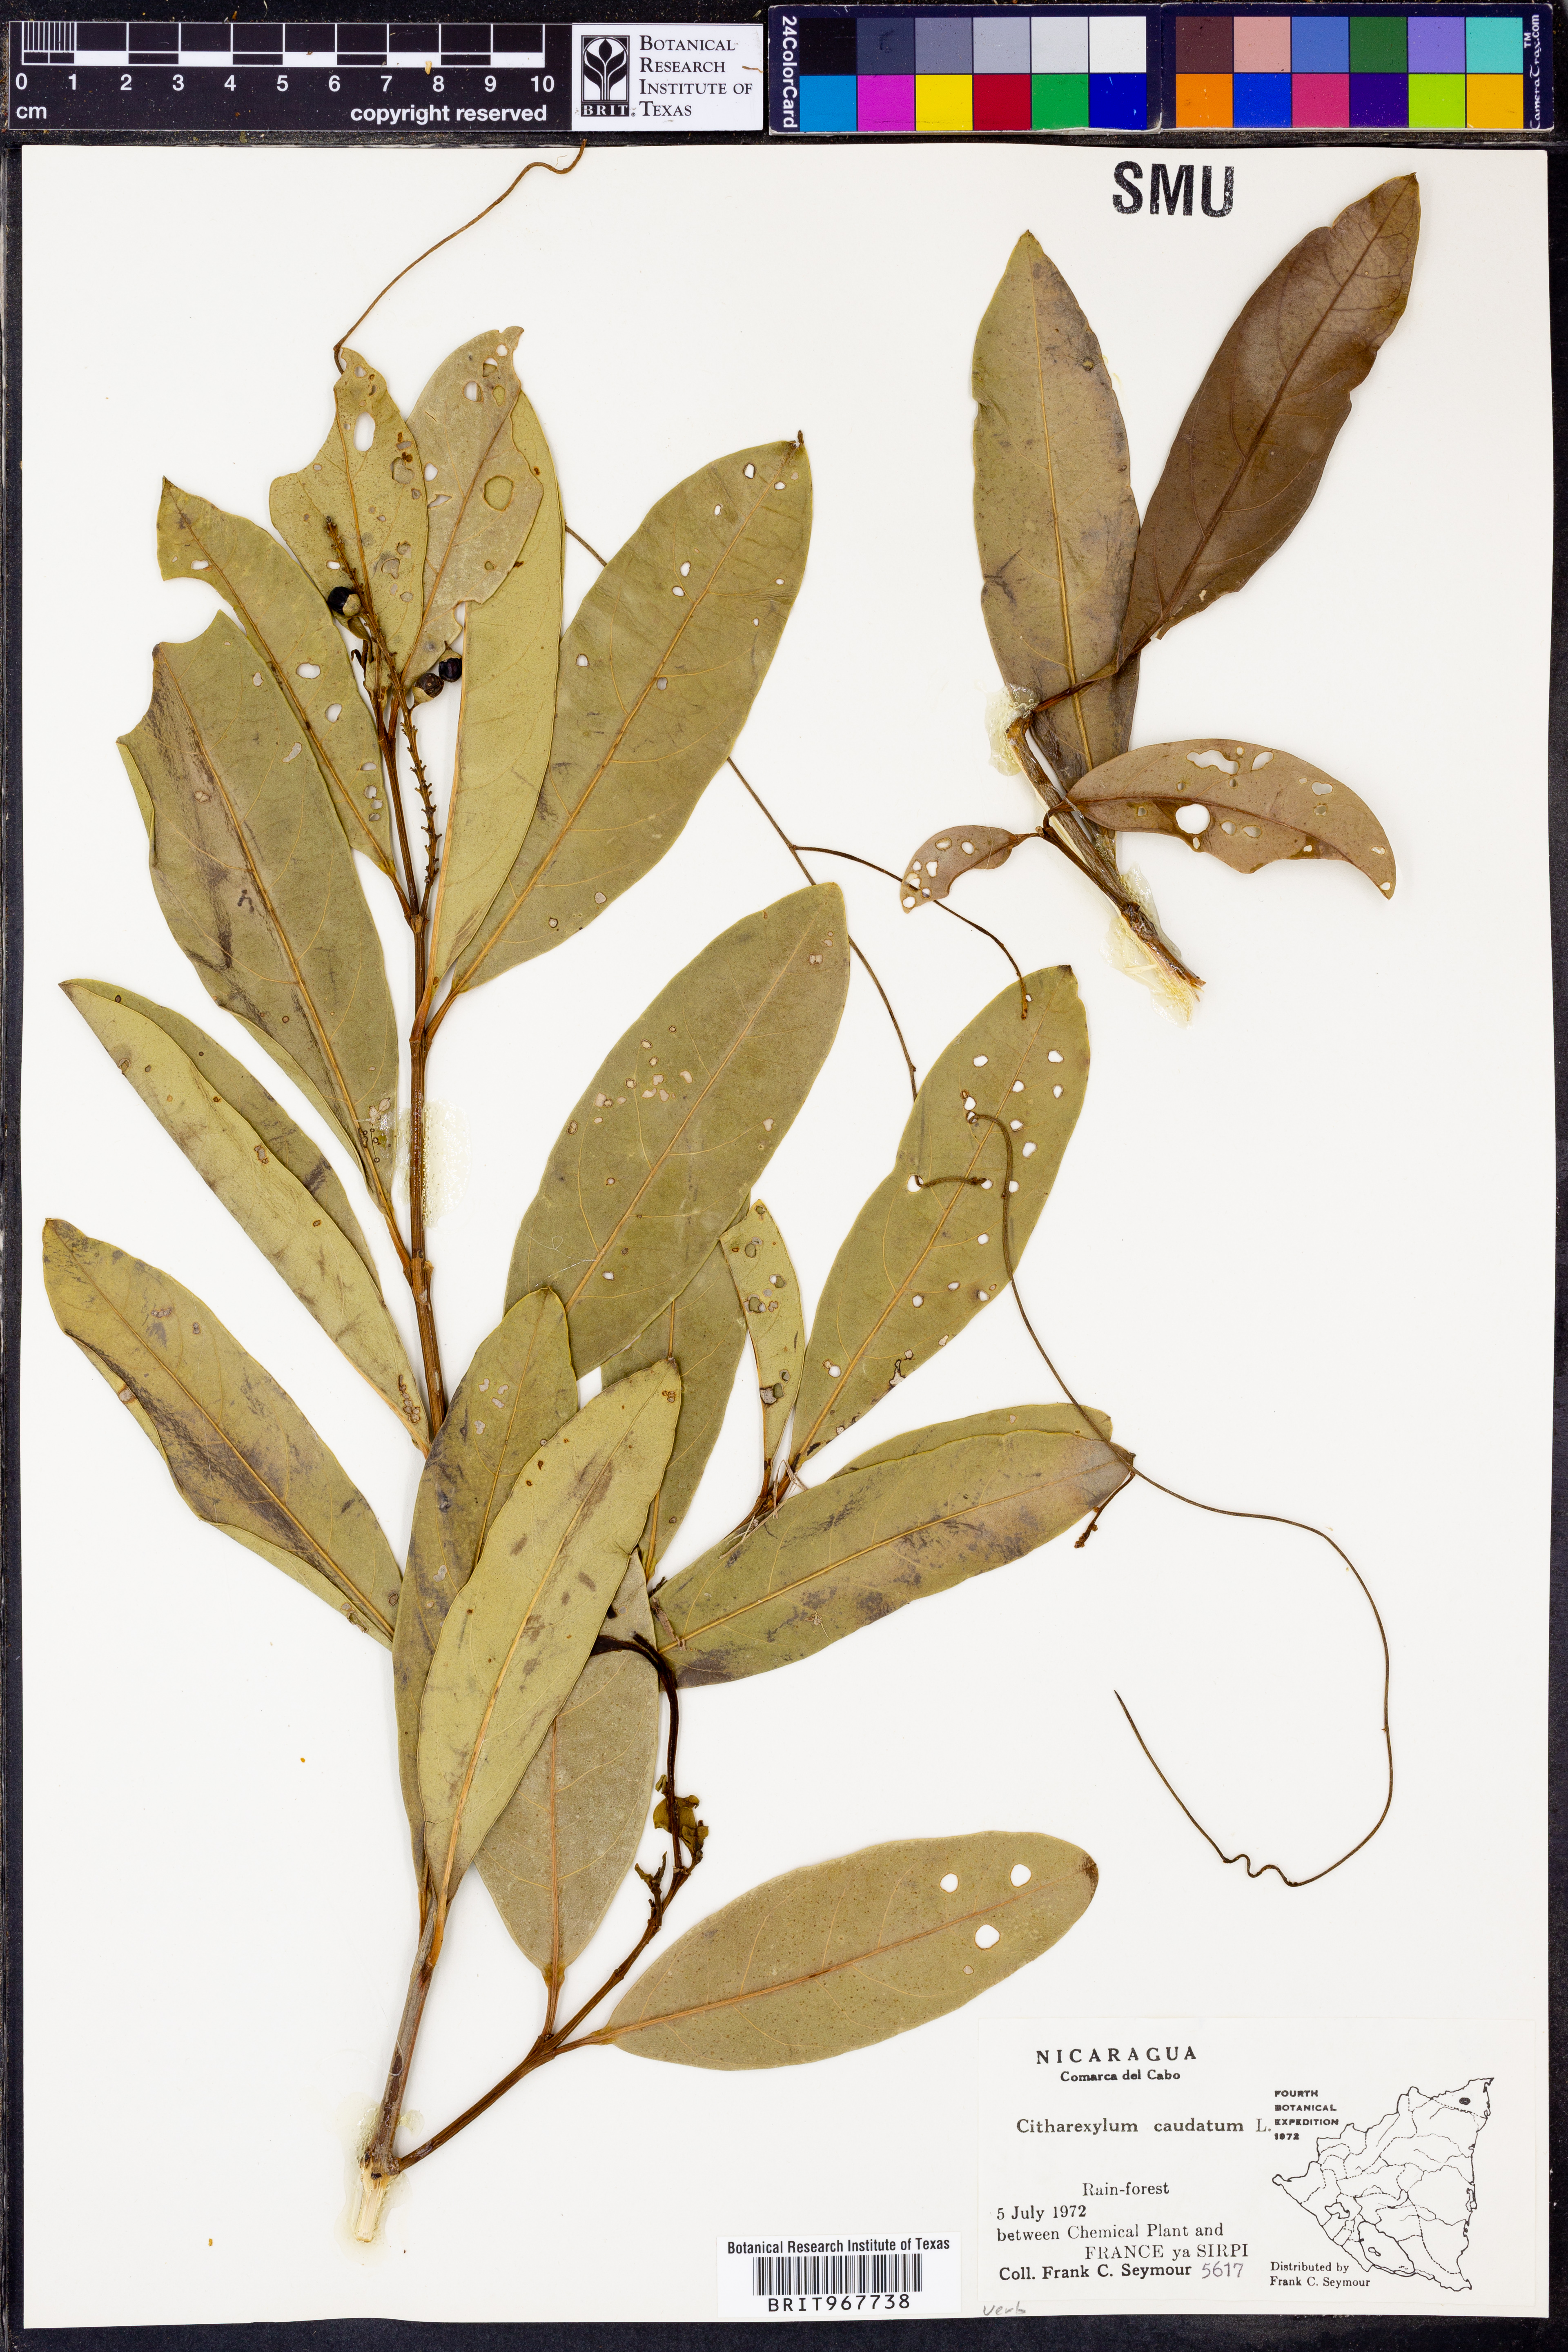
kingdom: Plantae
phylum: Tracheophyta
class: Magnoliopsida
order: Lamiales
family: Verbenaceae
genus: Citharexylum
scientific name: Citharexylum
